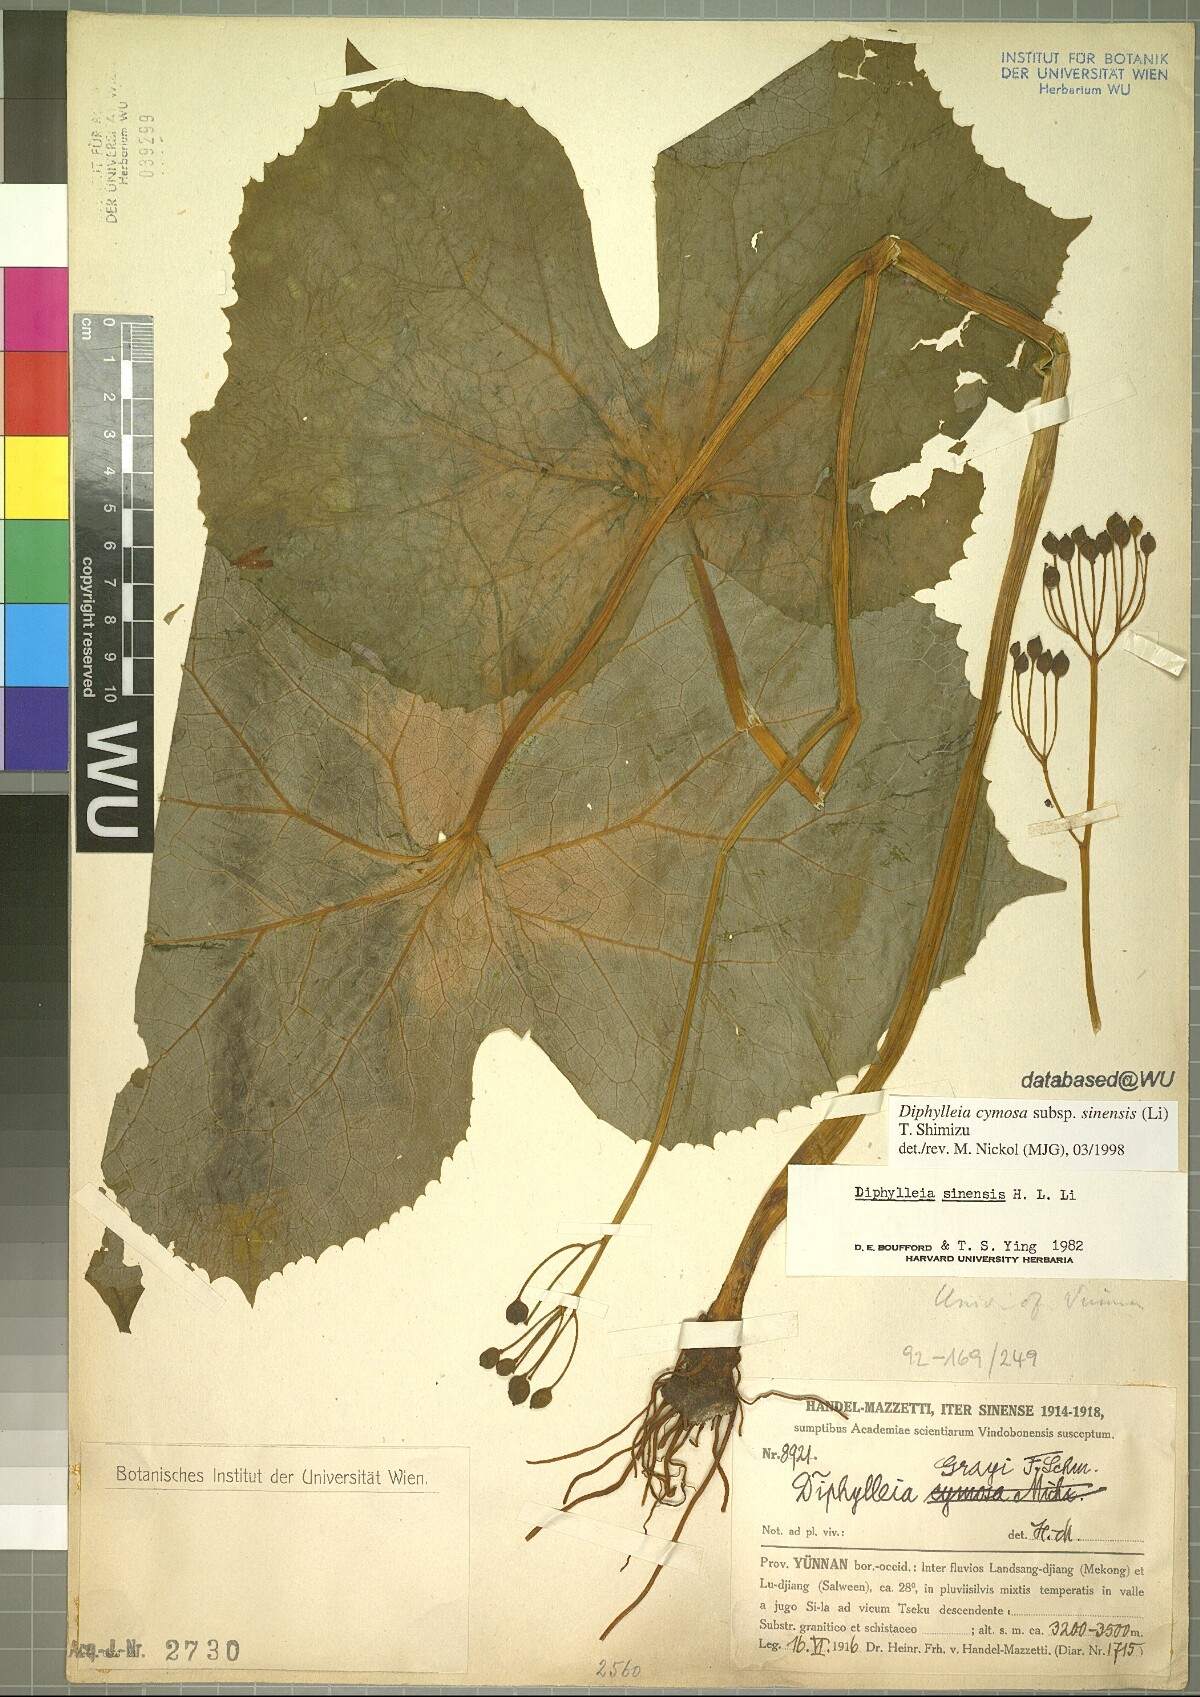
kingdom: Plantae
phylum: Tracheophyta
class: Magnoliopsida
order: Ranunculales
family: Berberidaceae
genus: Diphylleia
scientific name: Diphylleia sinensis
